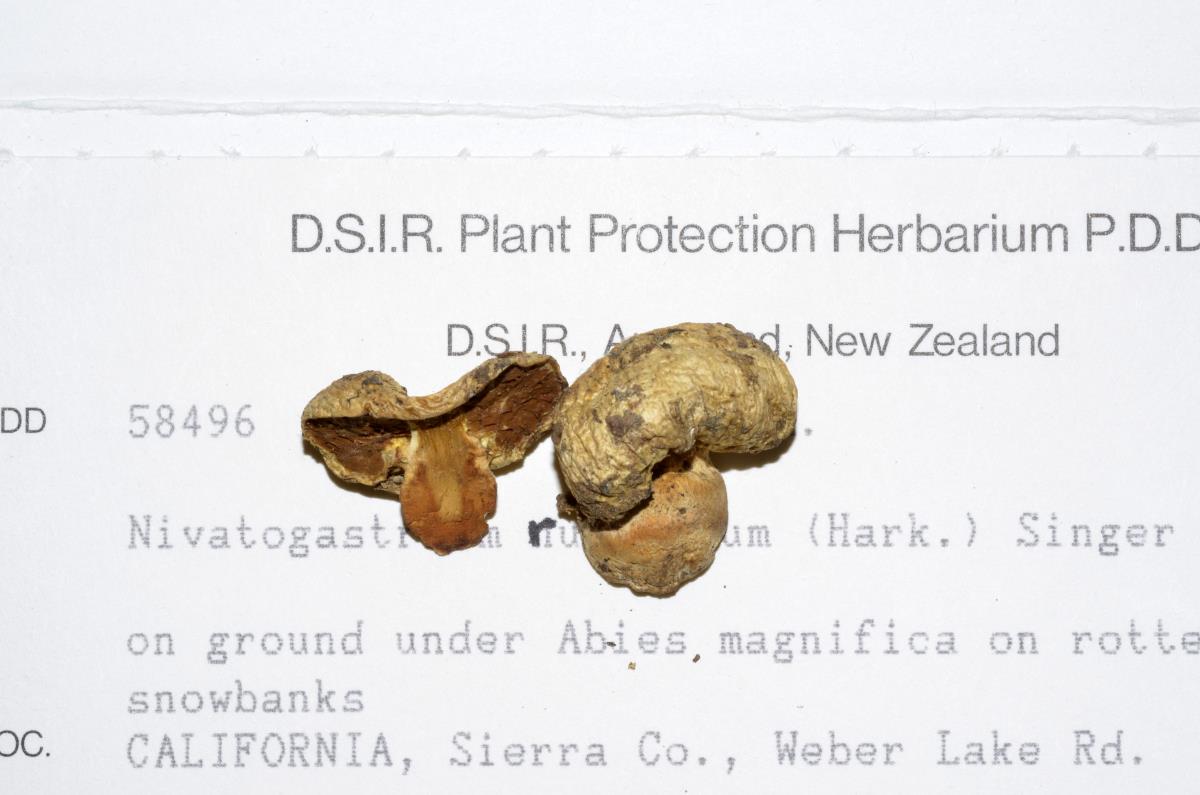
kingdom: Fungi
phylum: Basidiomycota
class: Agaricomycetes
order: Agaricales
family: Strophariaceae
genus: Pholiota
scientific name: Pholiota nubigena
